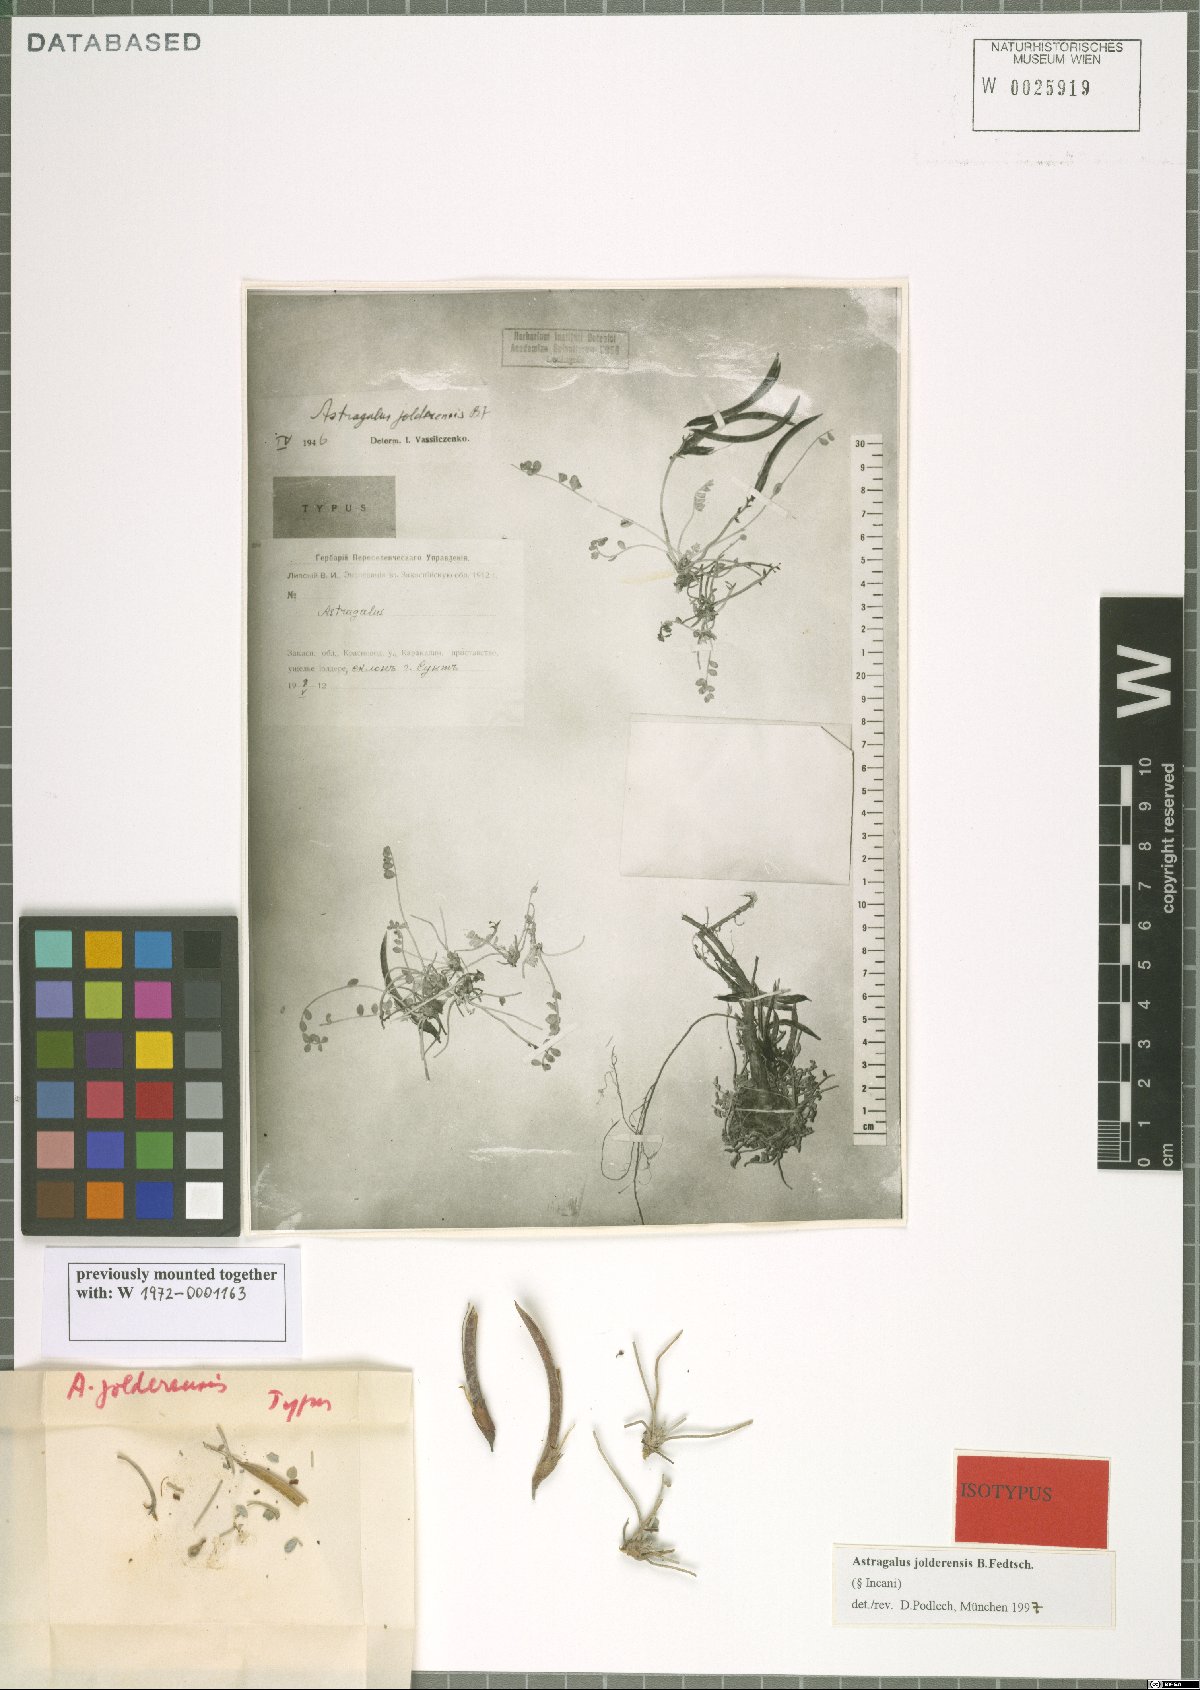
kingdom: Plantae
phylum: Tracheophyta
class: Magnoliopsida
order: Fabales
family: Fabaceae
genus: Astragalus
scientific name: Astragalus jolderensis
